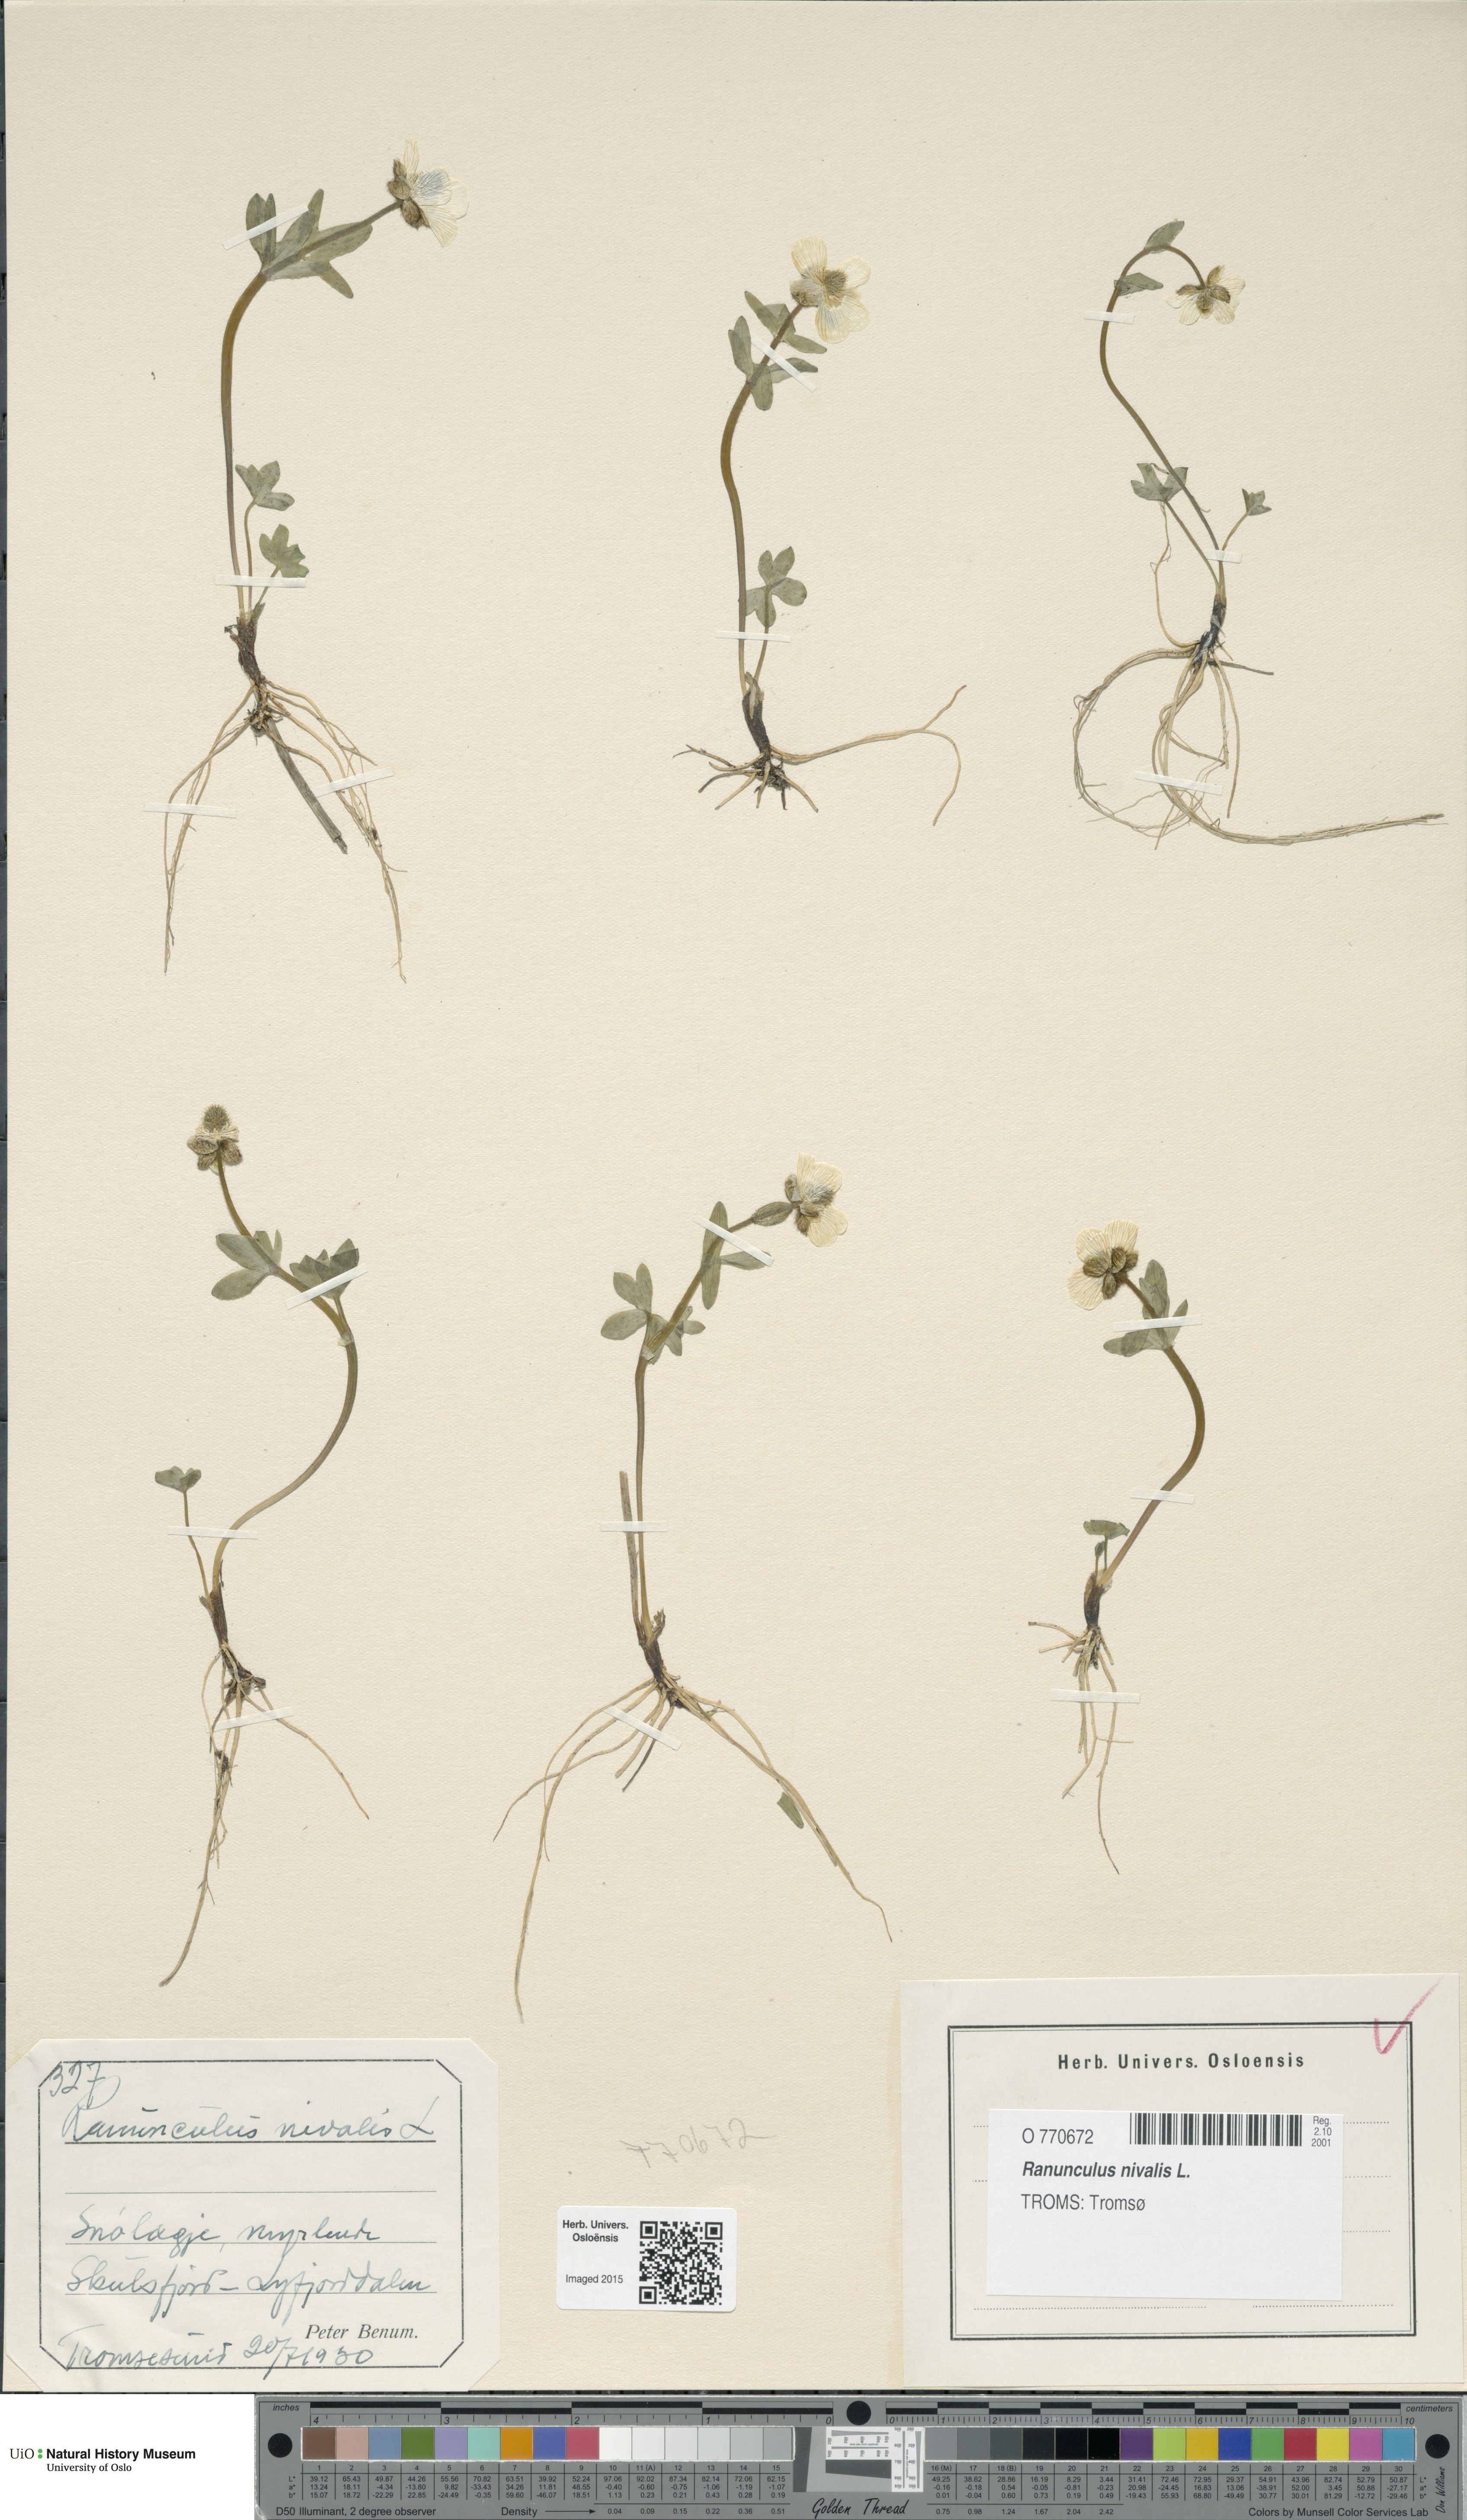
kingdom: Plantae
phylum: Tracheophyta
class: Magnoliopsida
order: Ranunculales
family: Ranunculaceae
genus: Ranunculus
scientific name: Ranunculus nivalis
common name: Snow buttercup
